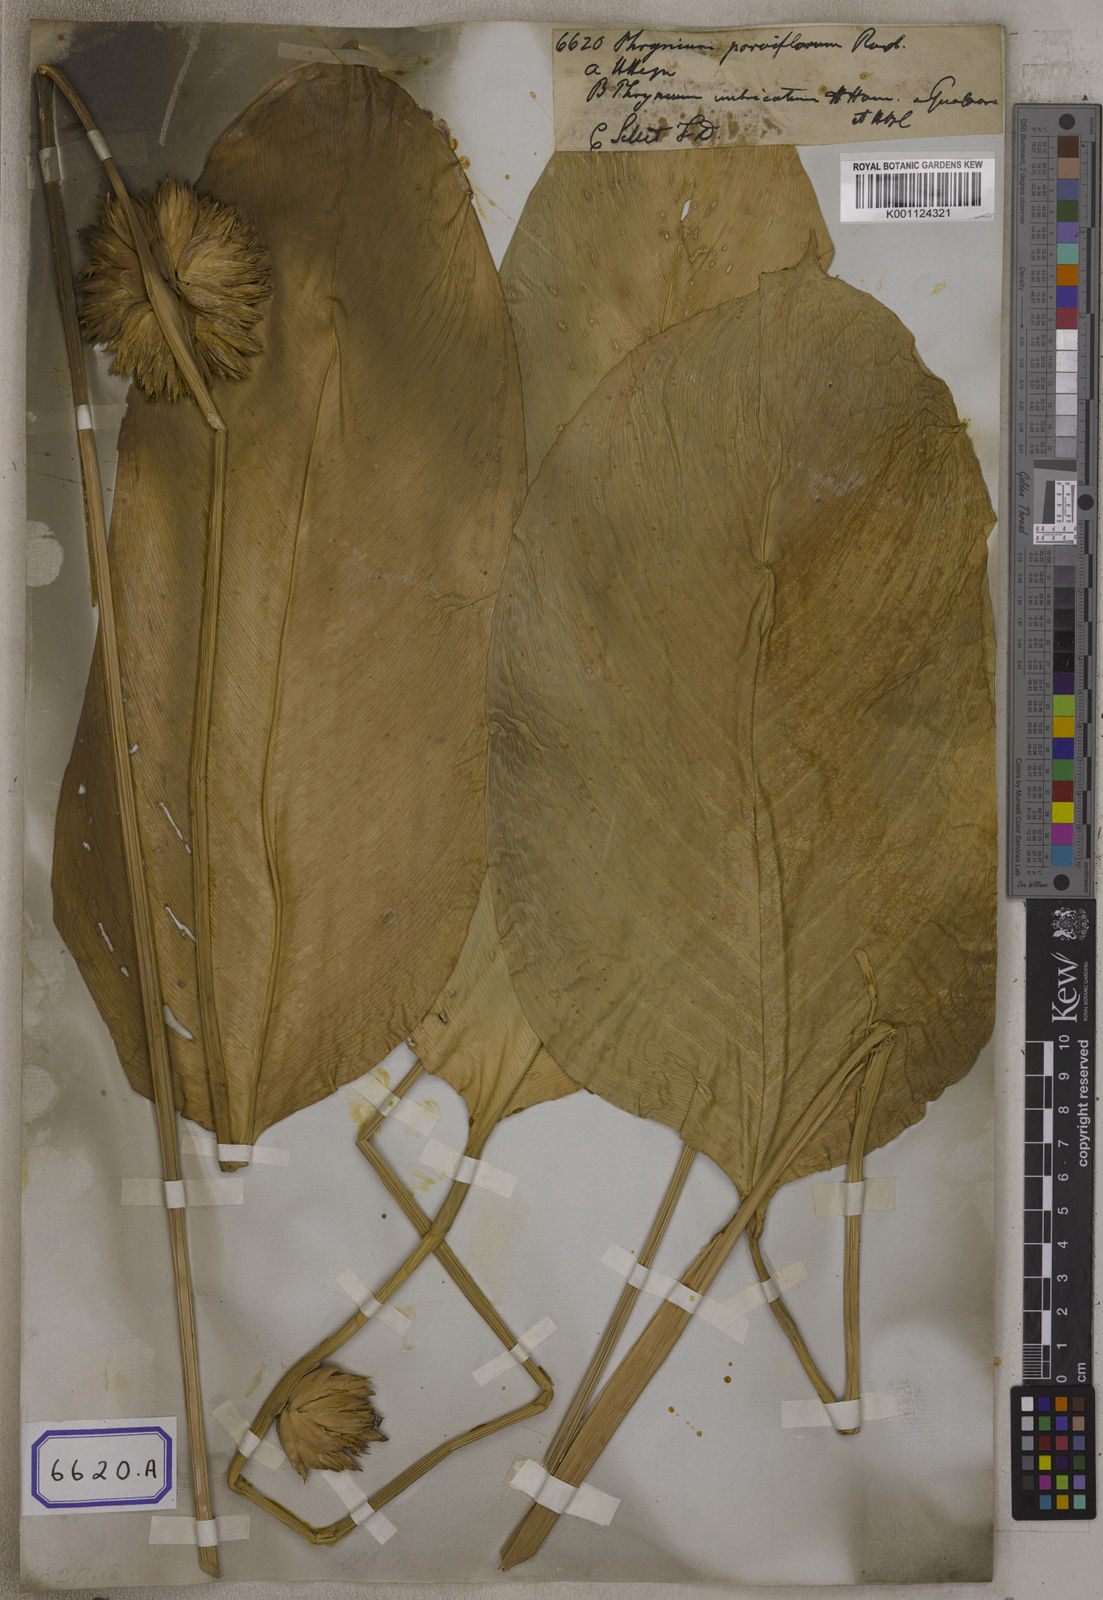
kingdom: Plantae
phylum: Tracheophyta
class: Liliopsida
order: Zingiberales
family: Marantaceae
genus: Stachyphrynium
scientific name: Stachyphrynium placentarium
